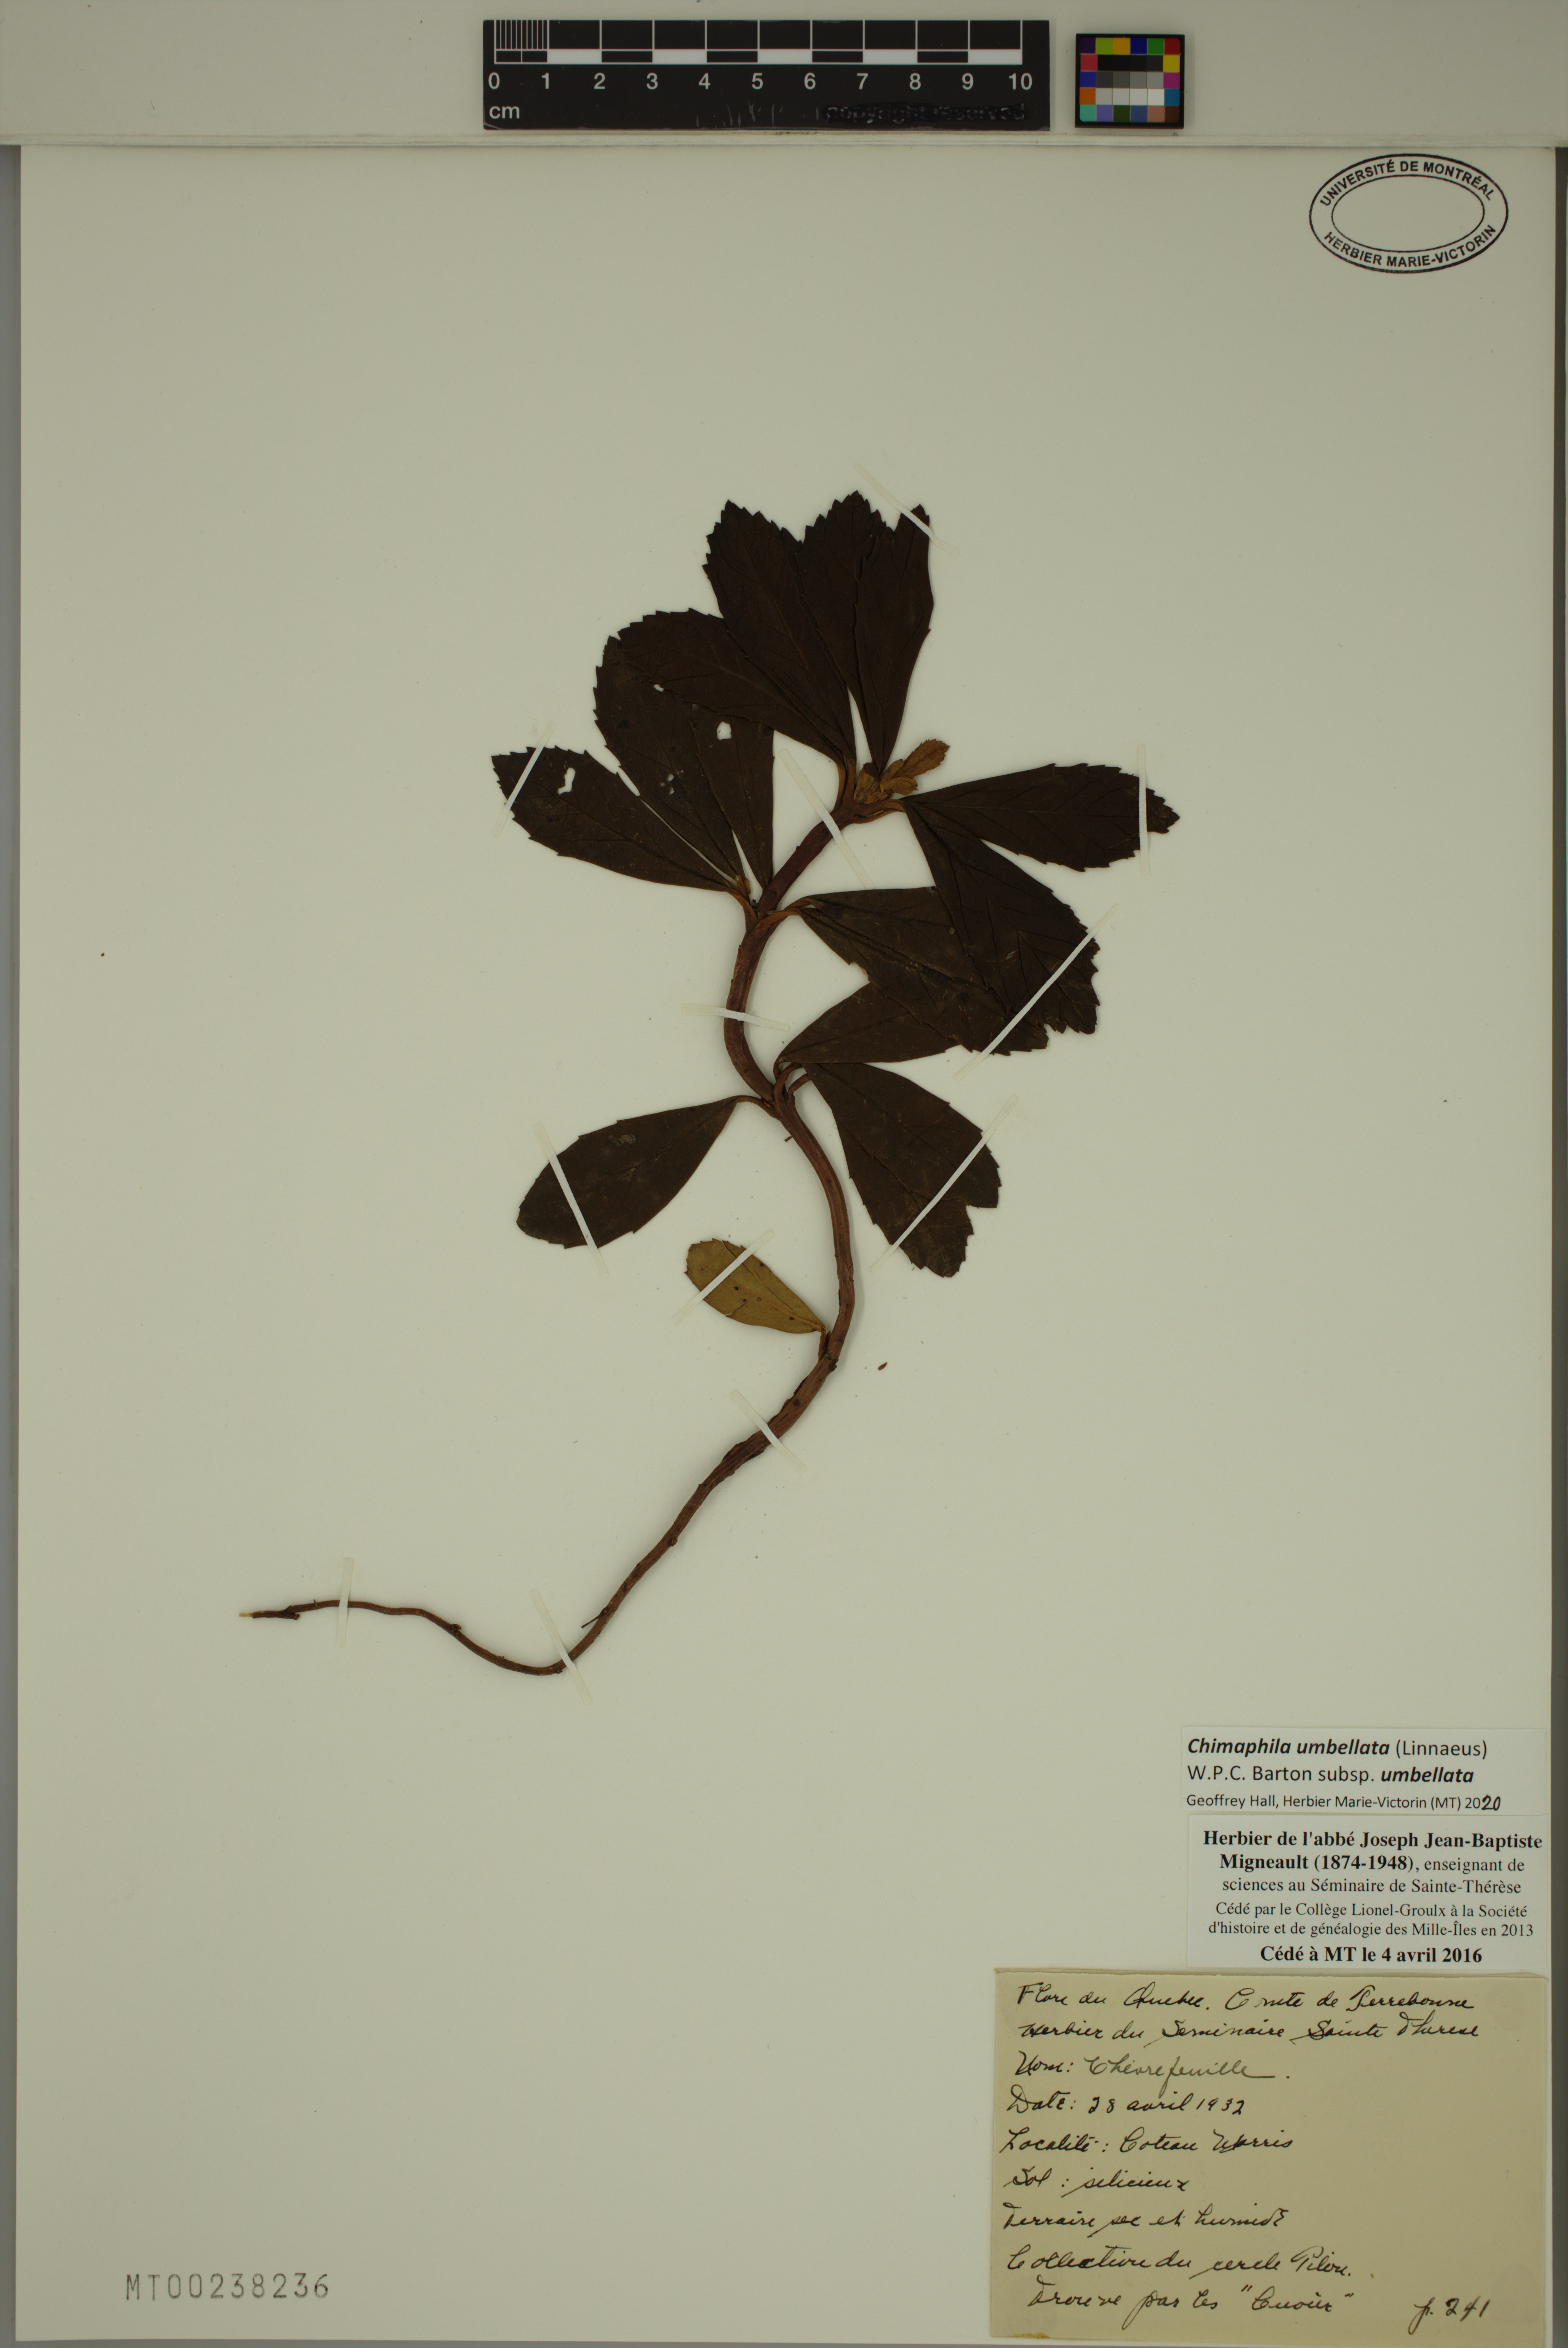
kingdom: Plantae
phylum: Tracheophyta
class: Magnoliopsida
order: Ericales
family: Ericaceae
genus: Chimaphila
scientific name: Chimaphila umbellata
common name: Pipsissewa
